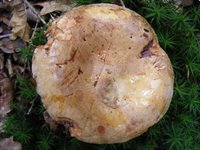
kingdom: Fungi
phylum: Basidiomycota
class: Agaricomycetes
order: Boletales
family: Paxillaceae
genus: Paxillus
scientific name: Paxillus involutus
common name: almindelig netbladhat
